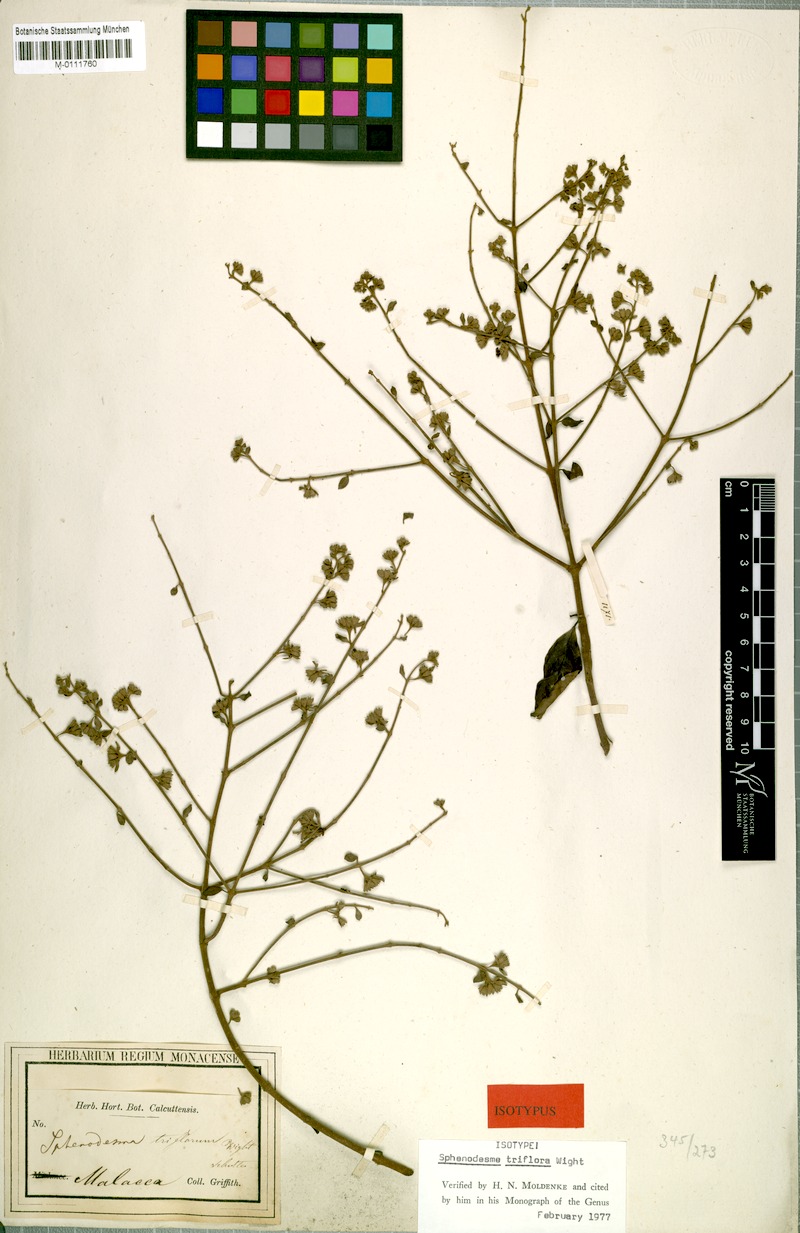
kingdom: Plantae
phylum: Tracheophyta
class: Magnoliopsida
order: Lamiales
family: Lamiaceae
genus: Sphenodesme
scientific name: Sphenodesme triflora
